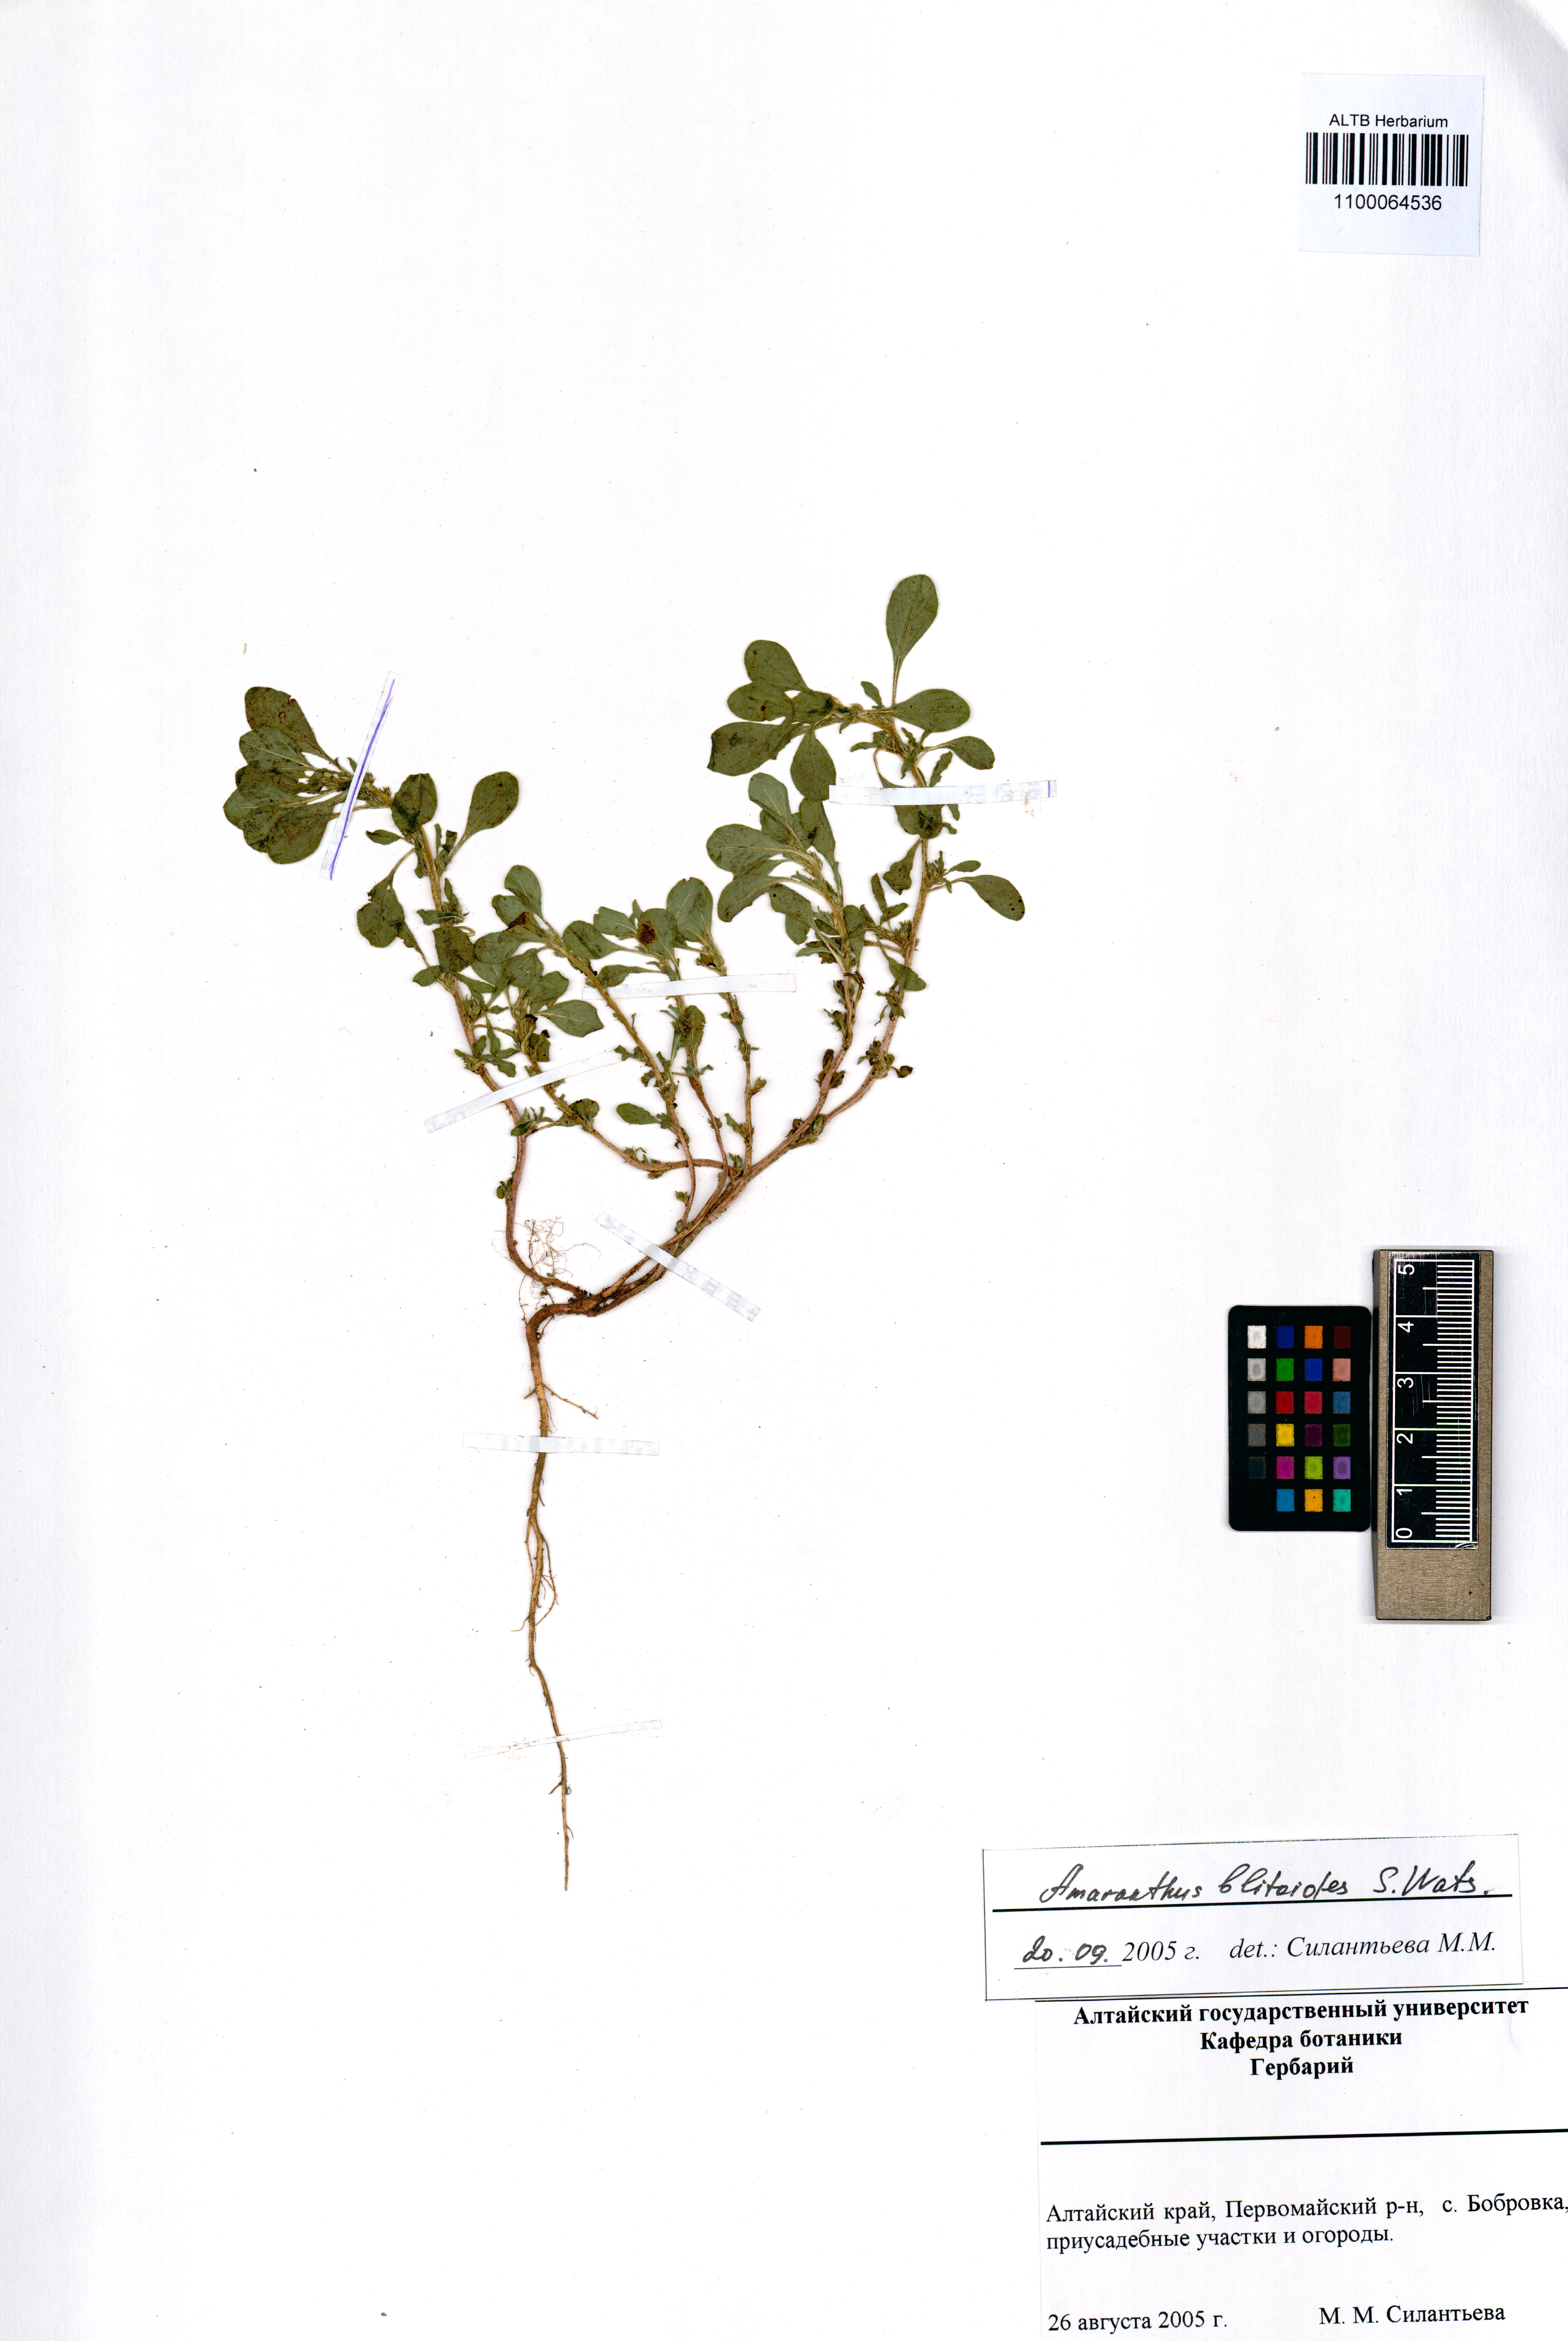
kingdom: Plantae
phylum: Tracheophyta
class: Magnoliopsida
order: Caryophyllales
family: Amaranthaceae
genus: Amaranthus
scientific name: Amaranthus blitoides
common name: Prostrate pigweed
